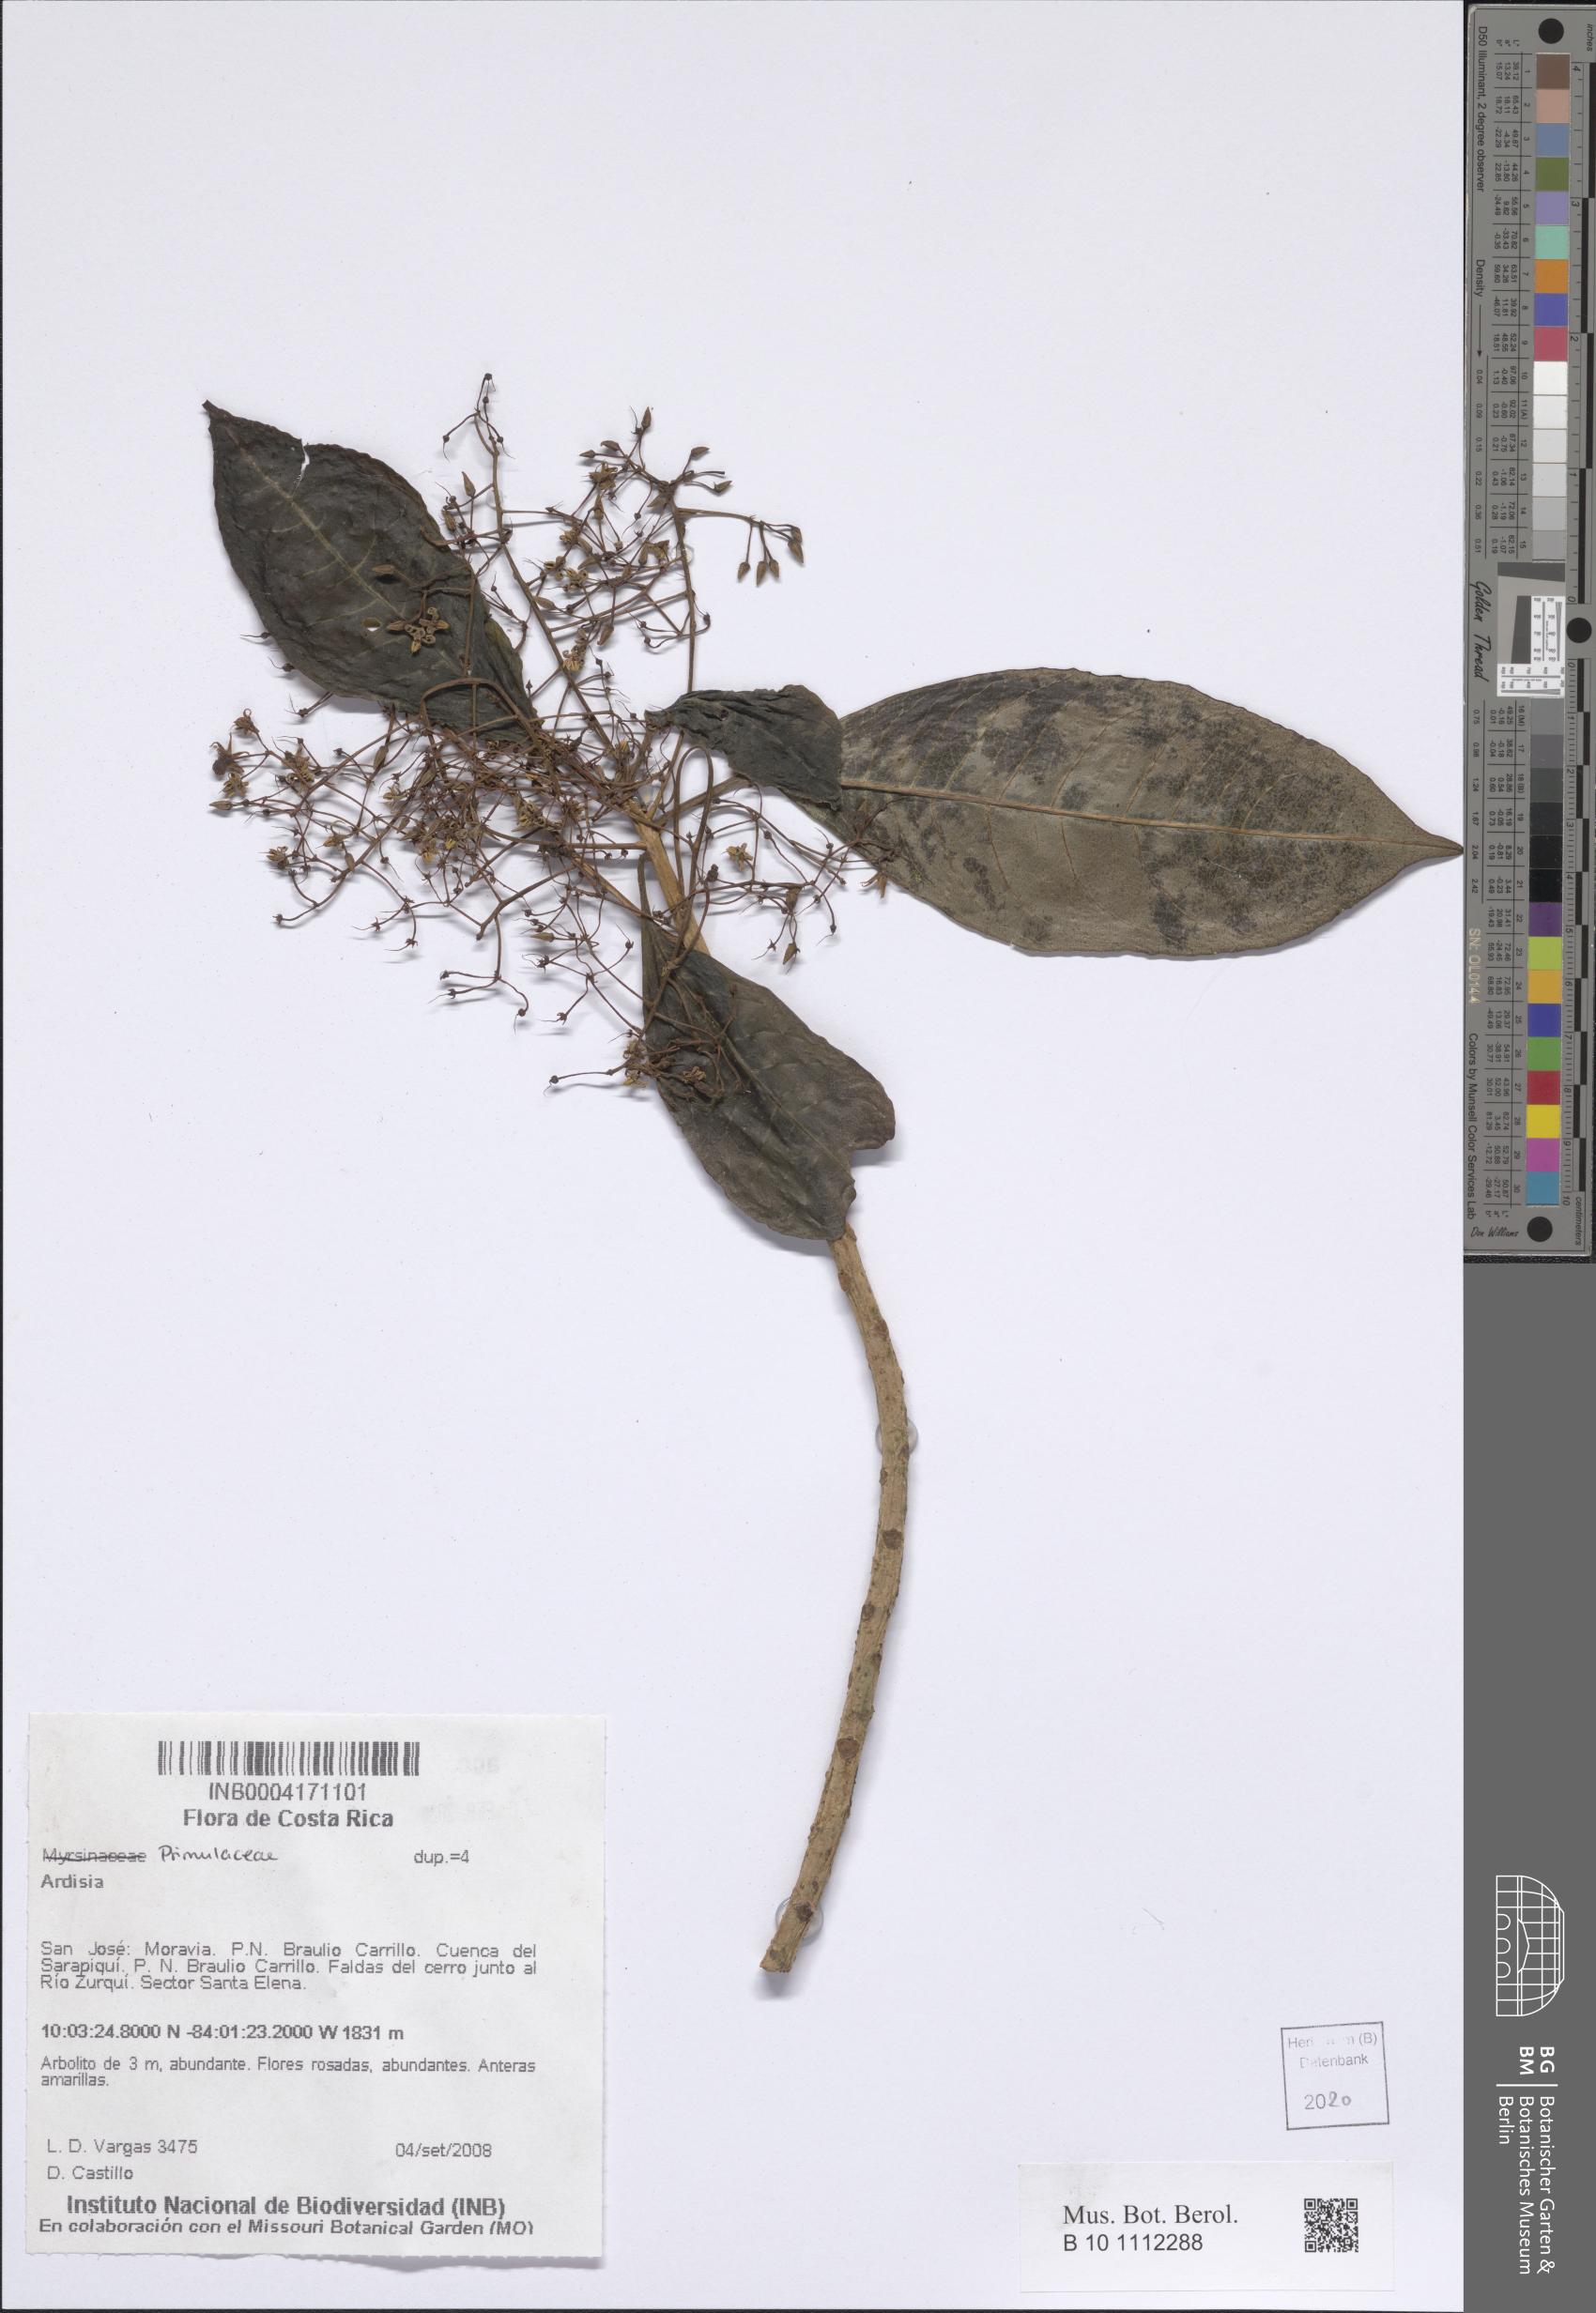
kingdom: Plantae
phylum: Tracheophyta
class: Magnoliopsida
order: Ericales
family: Primulaceae
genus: Ardisia
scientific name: Ardisia
